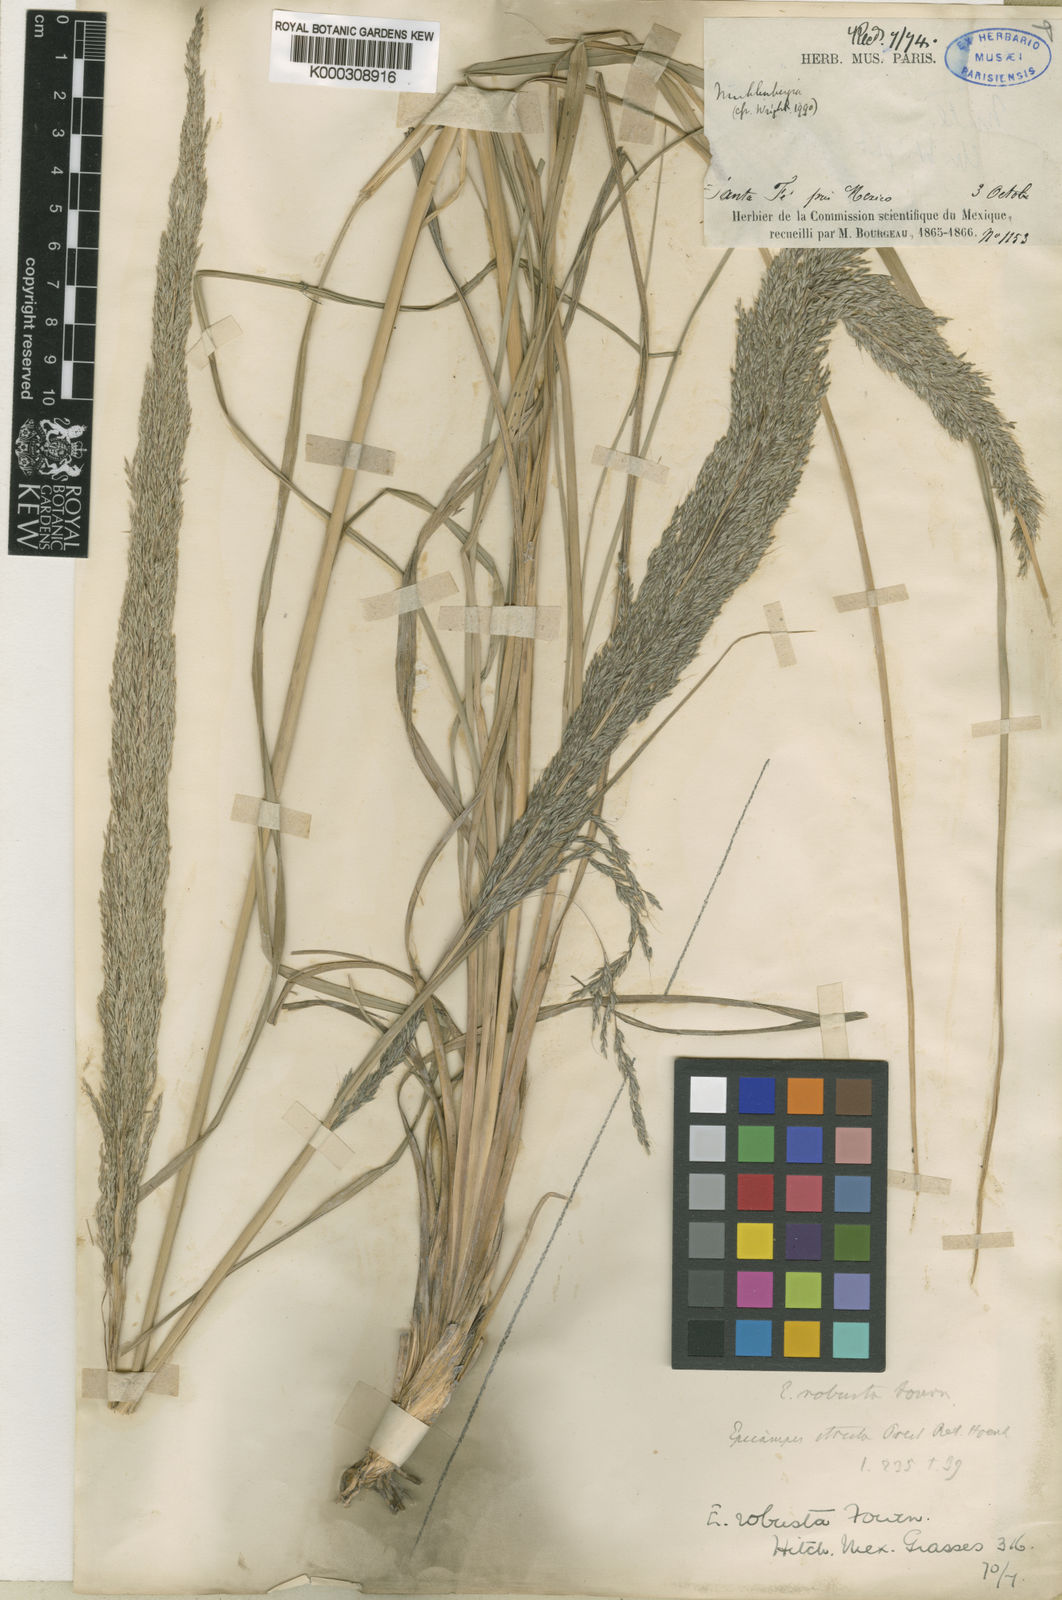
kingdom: Plantae
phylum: Tracheophyta
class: Liliopsida
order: Poales
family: Poaceae
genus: Muhlenbergia
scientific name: Muhlenbergia robusta
